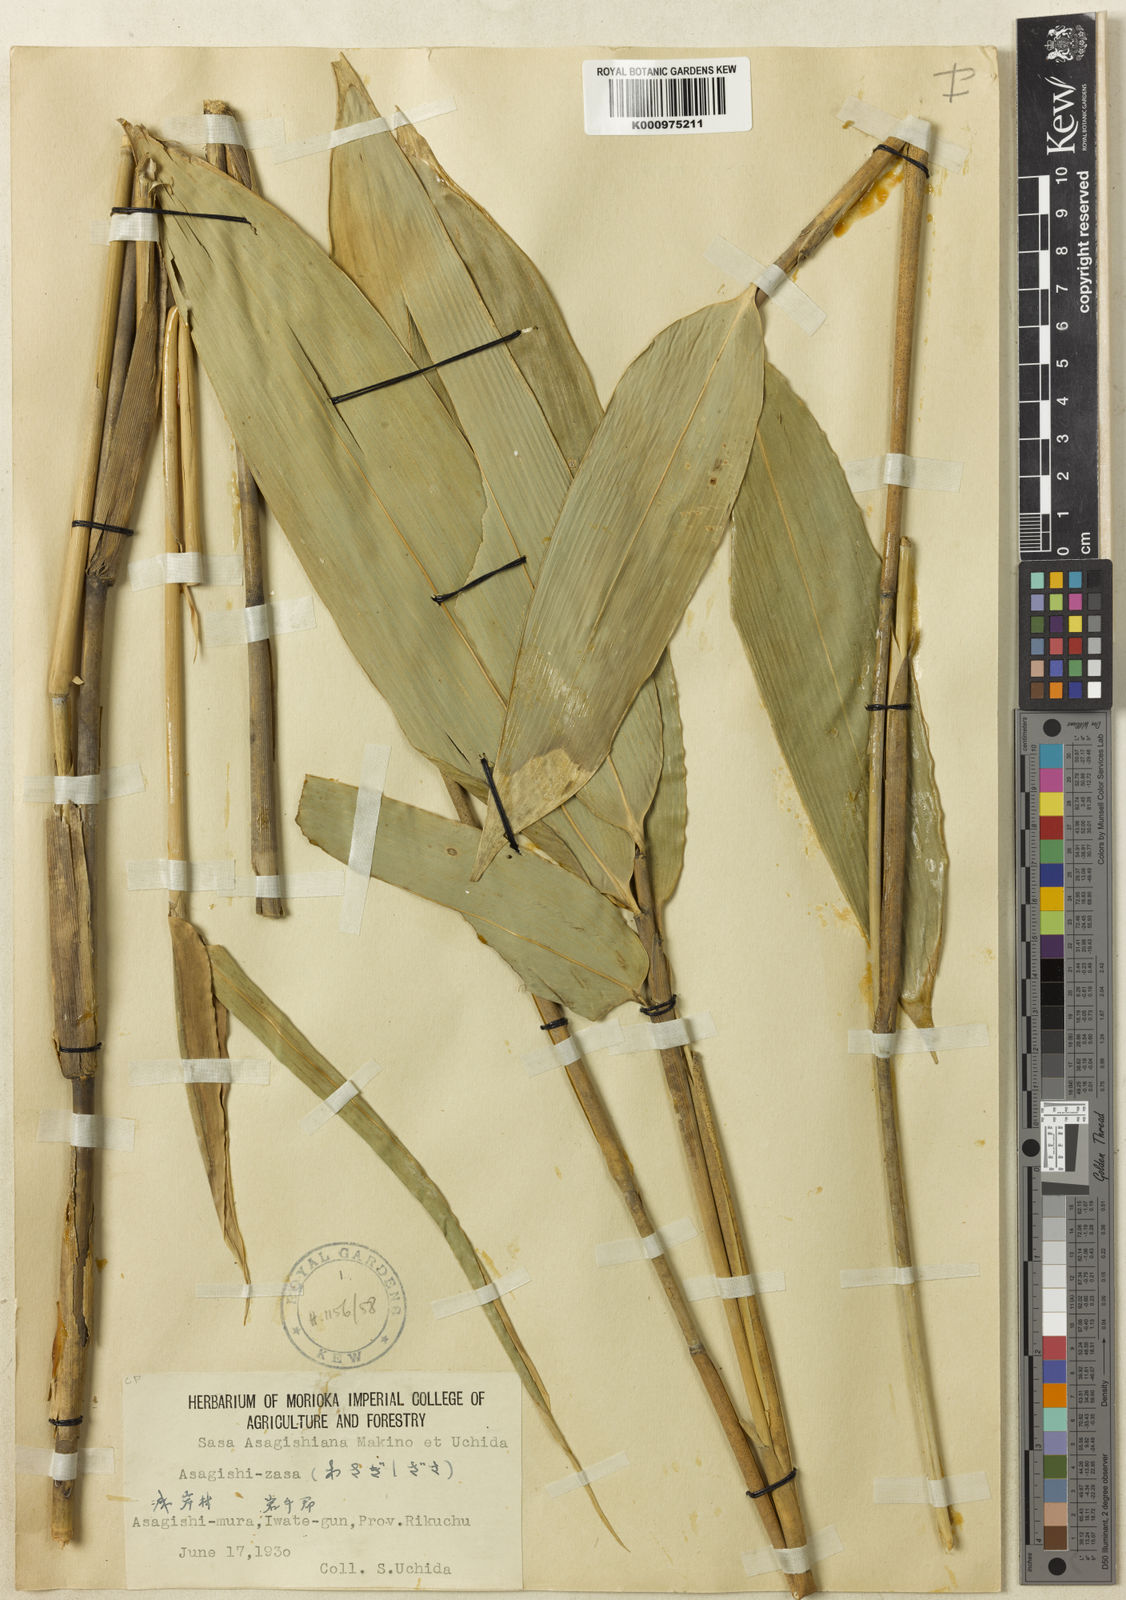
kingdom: Plantae
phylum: Tracheophyta
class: Liliopsida
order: Poales
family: Poaceae
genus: Sasa
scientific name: Sasa shimidzuana
